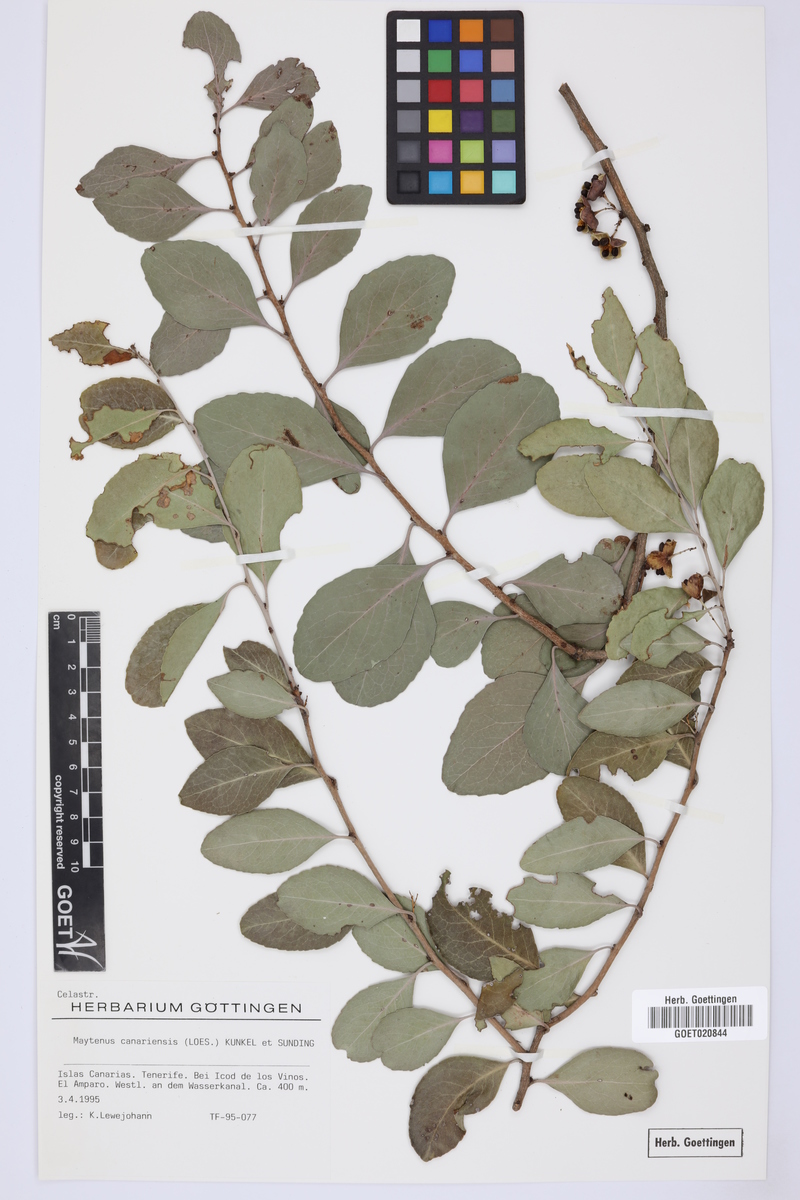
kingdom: Plantae
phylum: Tracheophyta
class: Magnoliopsida
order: Celastrales
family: Celastraceae
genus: Gymnosporia
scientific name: Gymnosporia cassinoides
